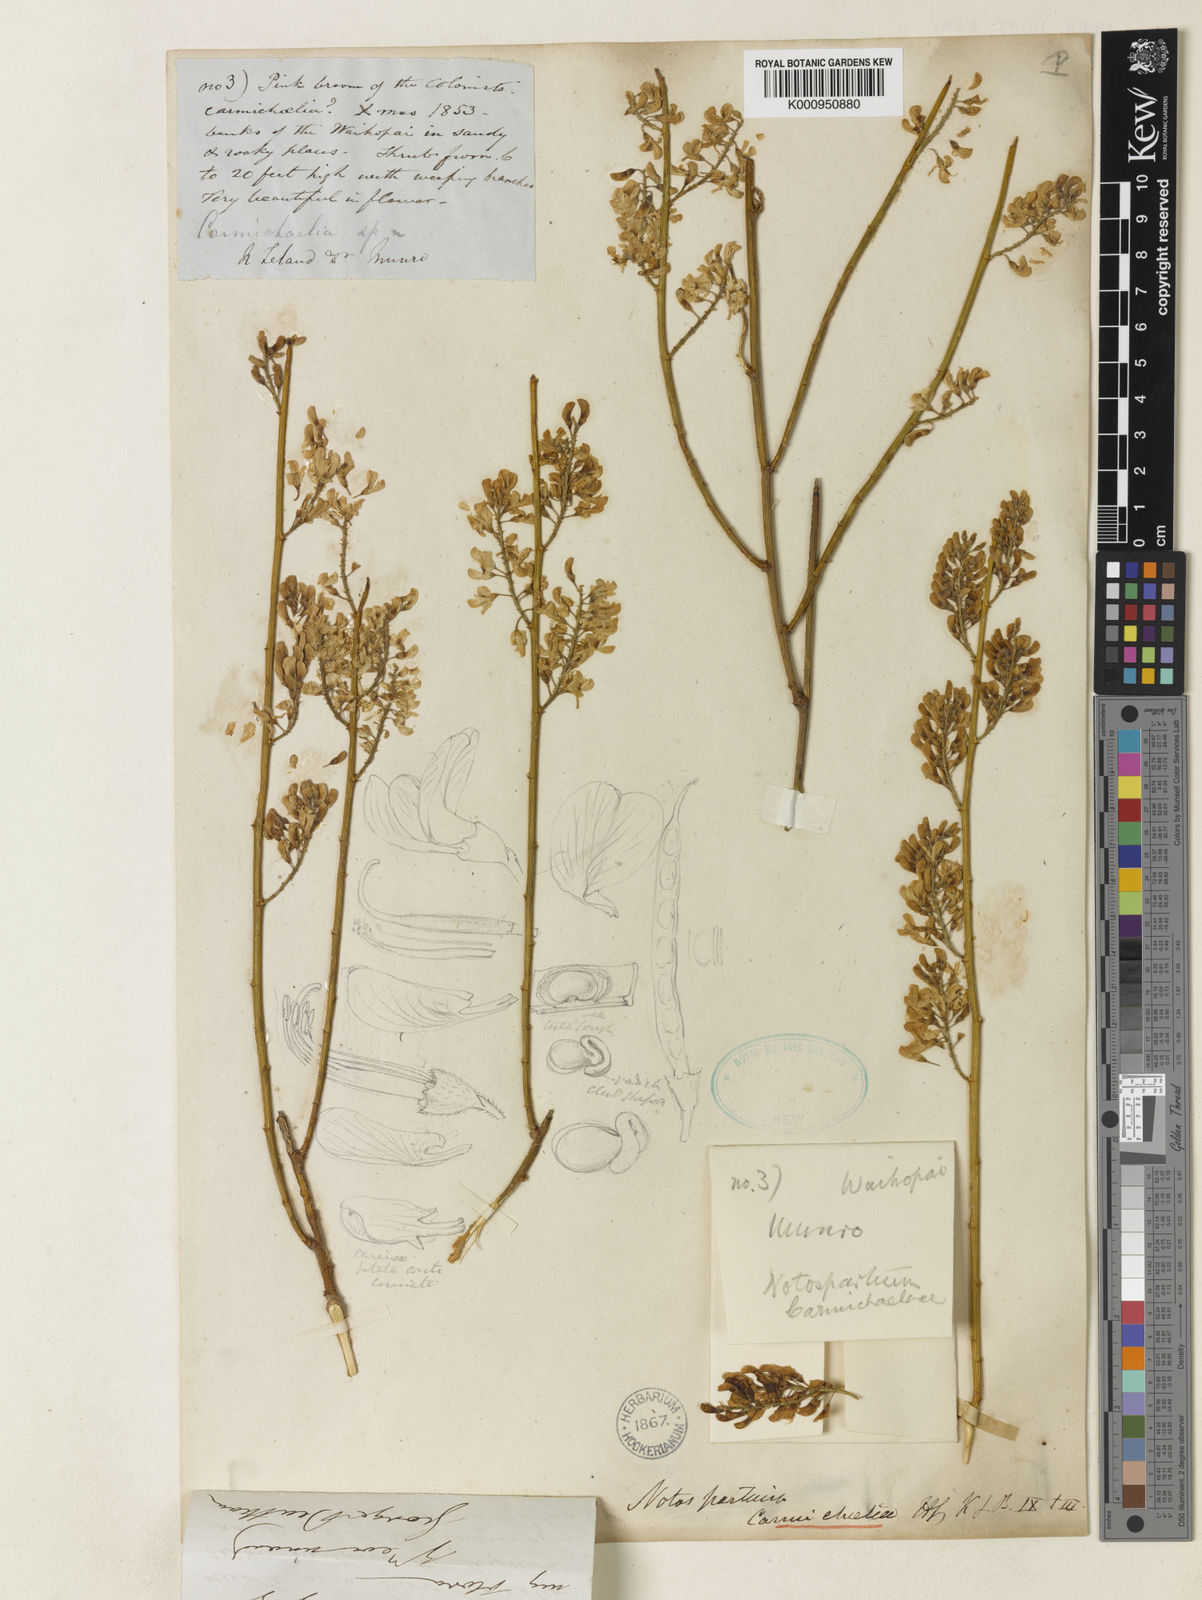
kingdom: Plantae
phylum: Tracheophyta
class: Magnoliopsida
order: Fabales
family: Fabaceae
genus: Carmichaelia
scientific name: Carmichaelia carmichaeliae
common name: Pink-broom
